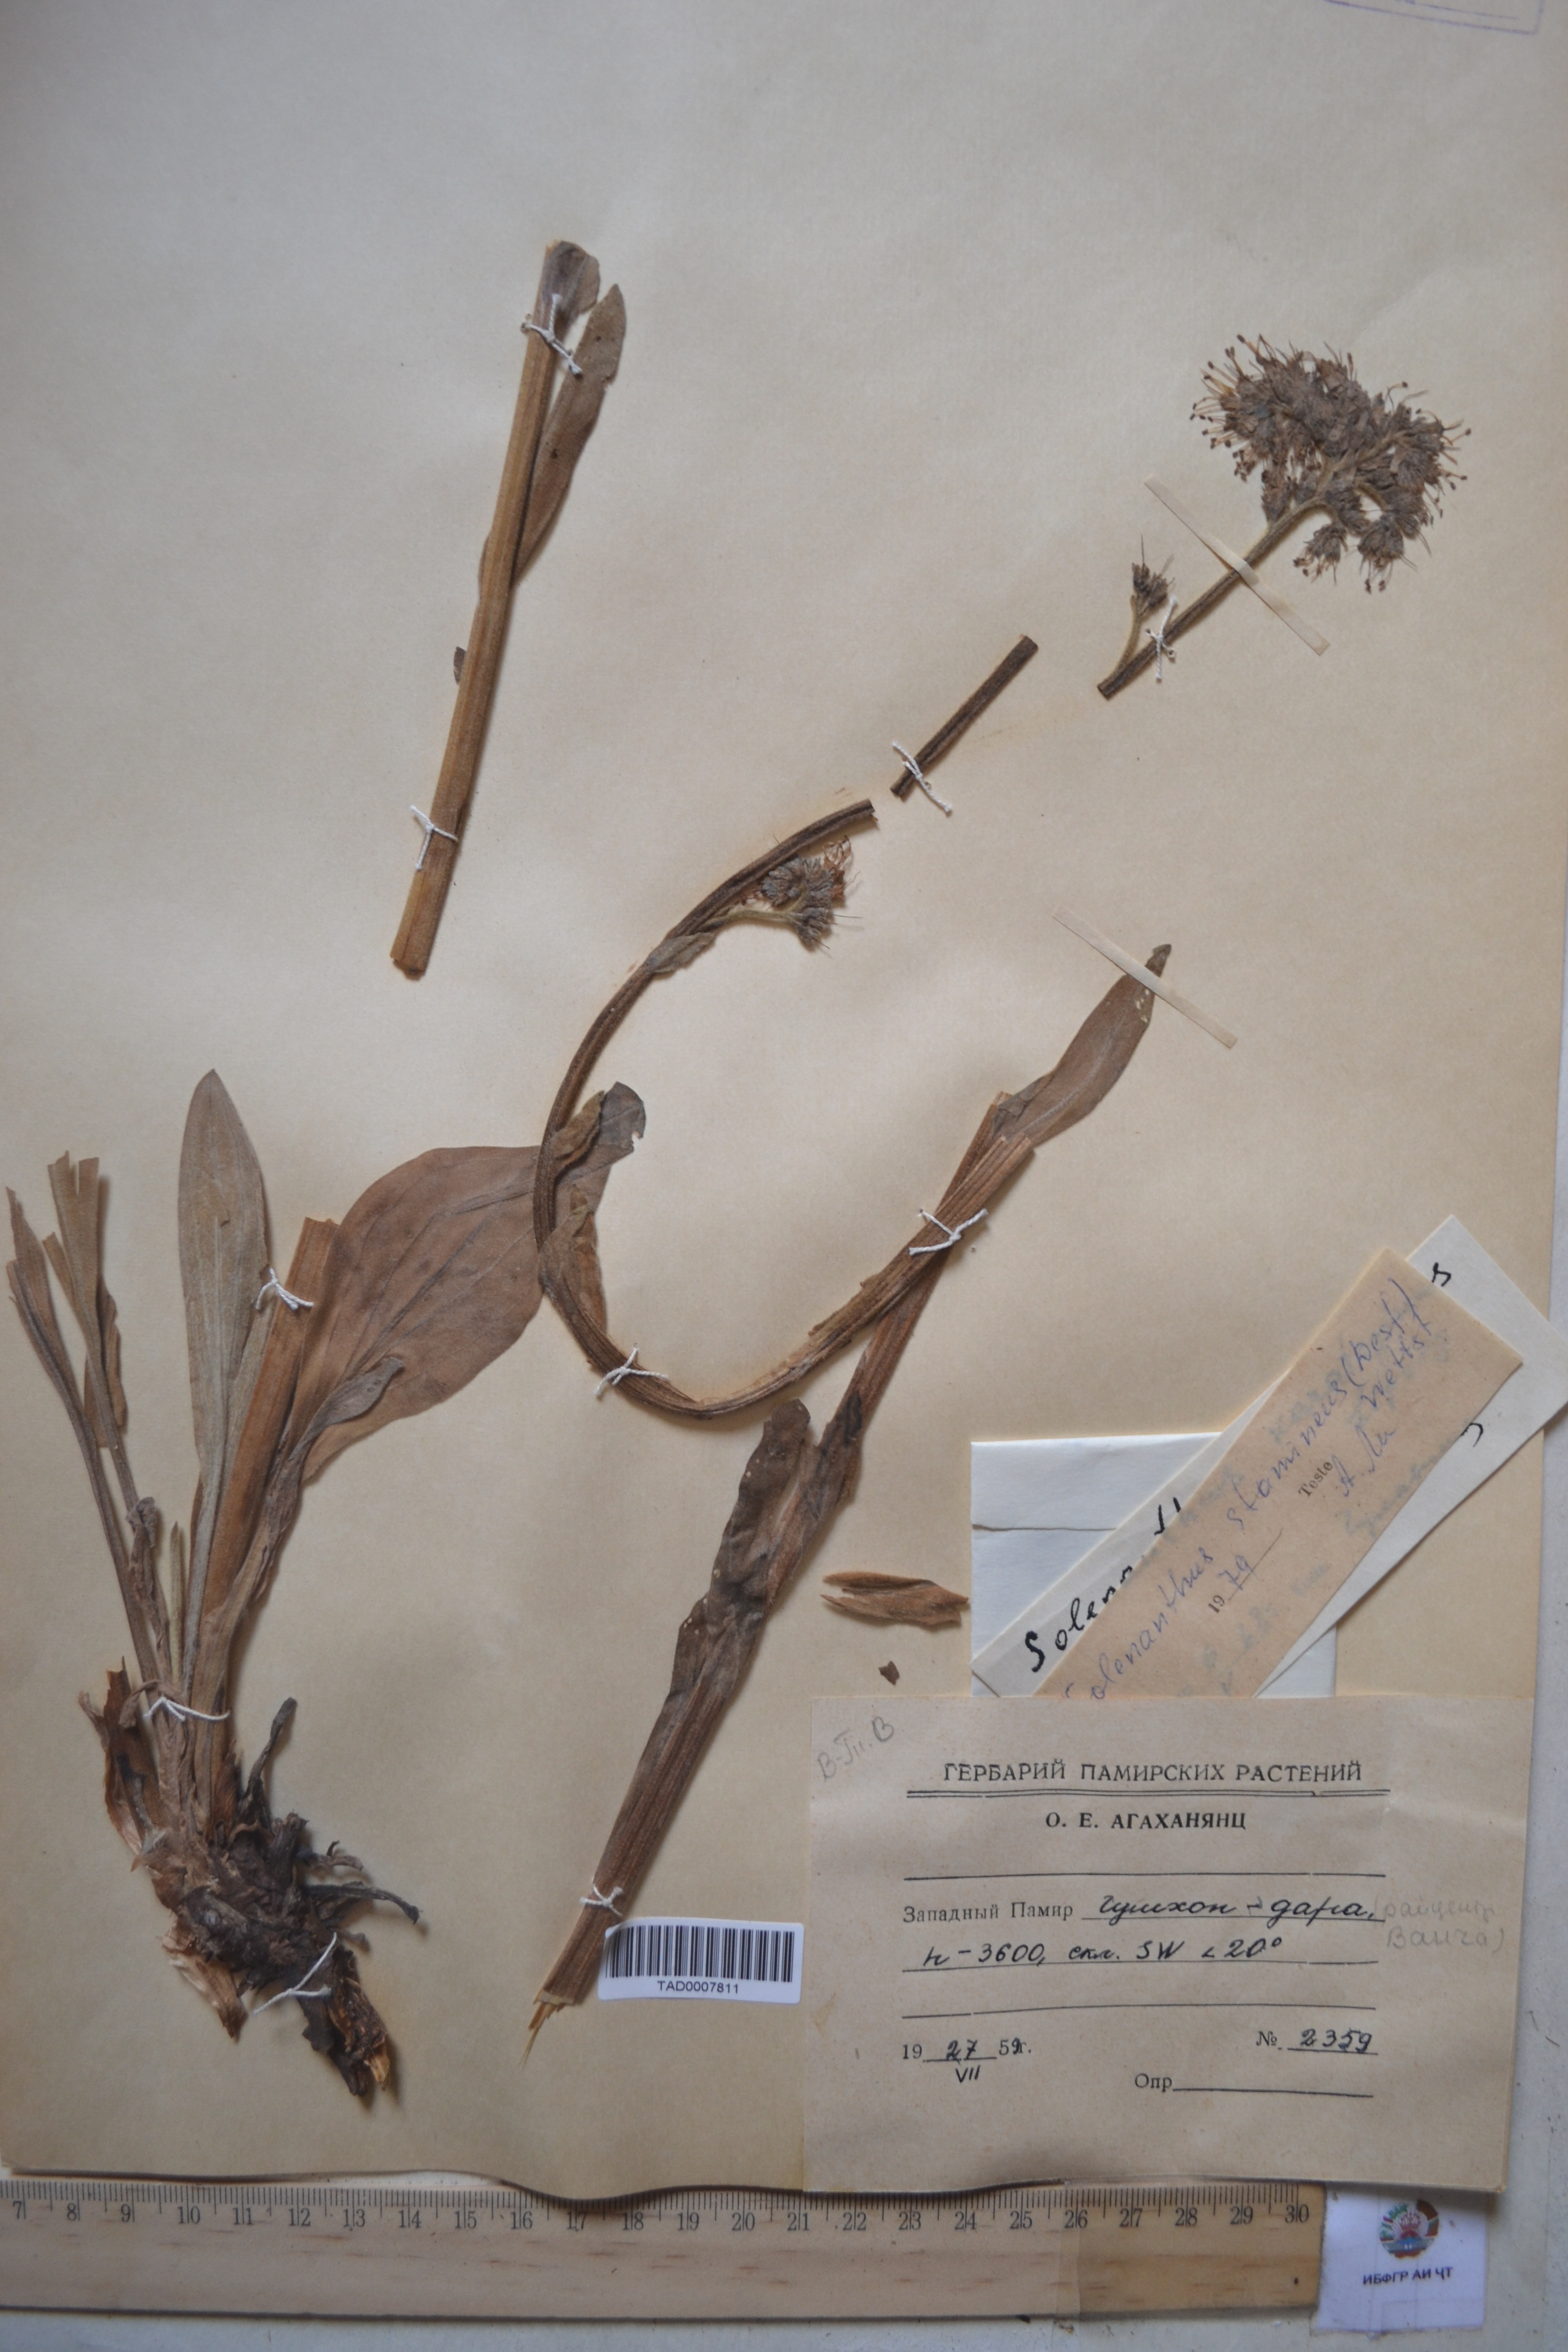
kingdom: Plantae
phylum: Tracheophyta
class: Magnoliopsida
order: Boraginales
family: Boraginaceae
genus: Solenanthus
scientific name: Solenanthus stamineus
